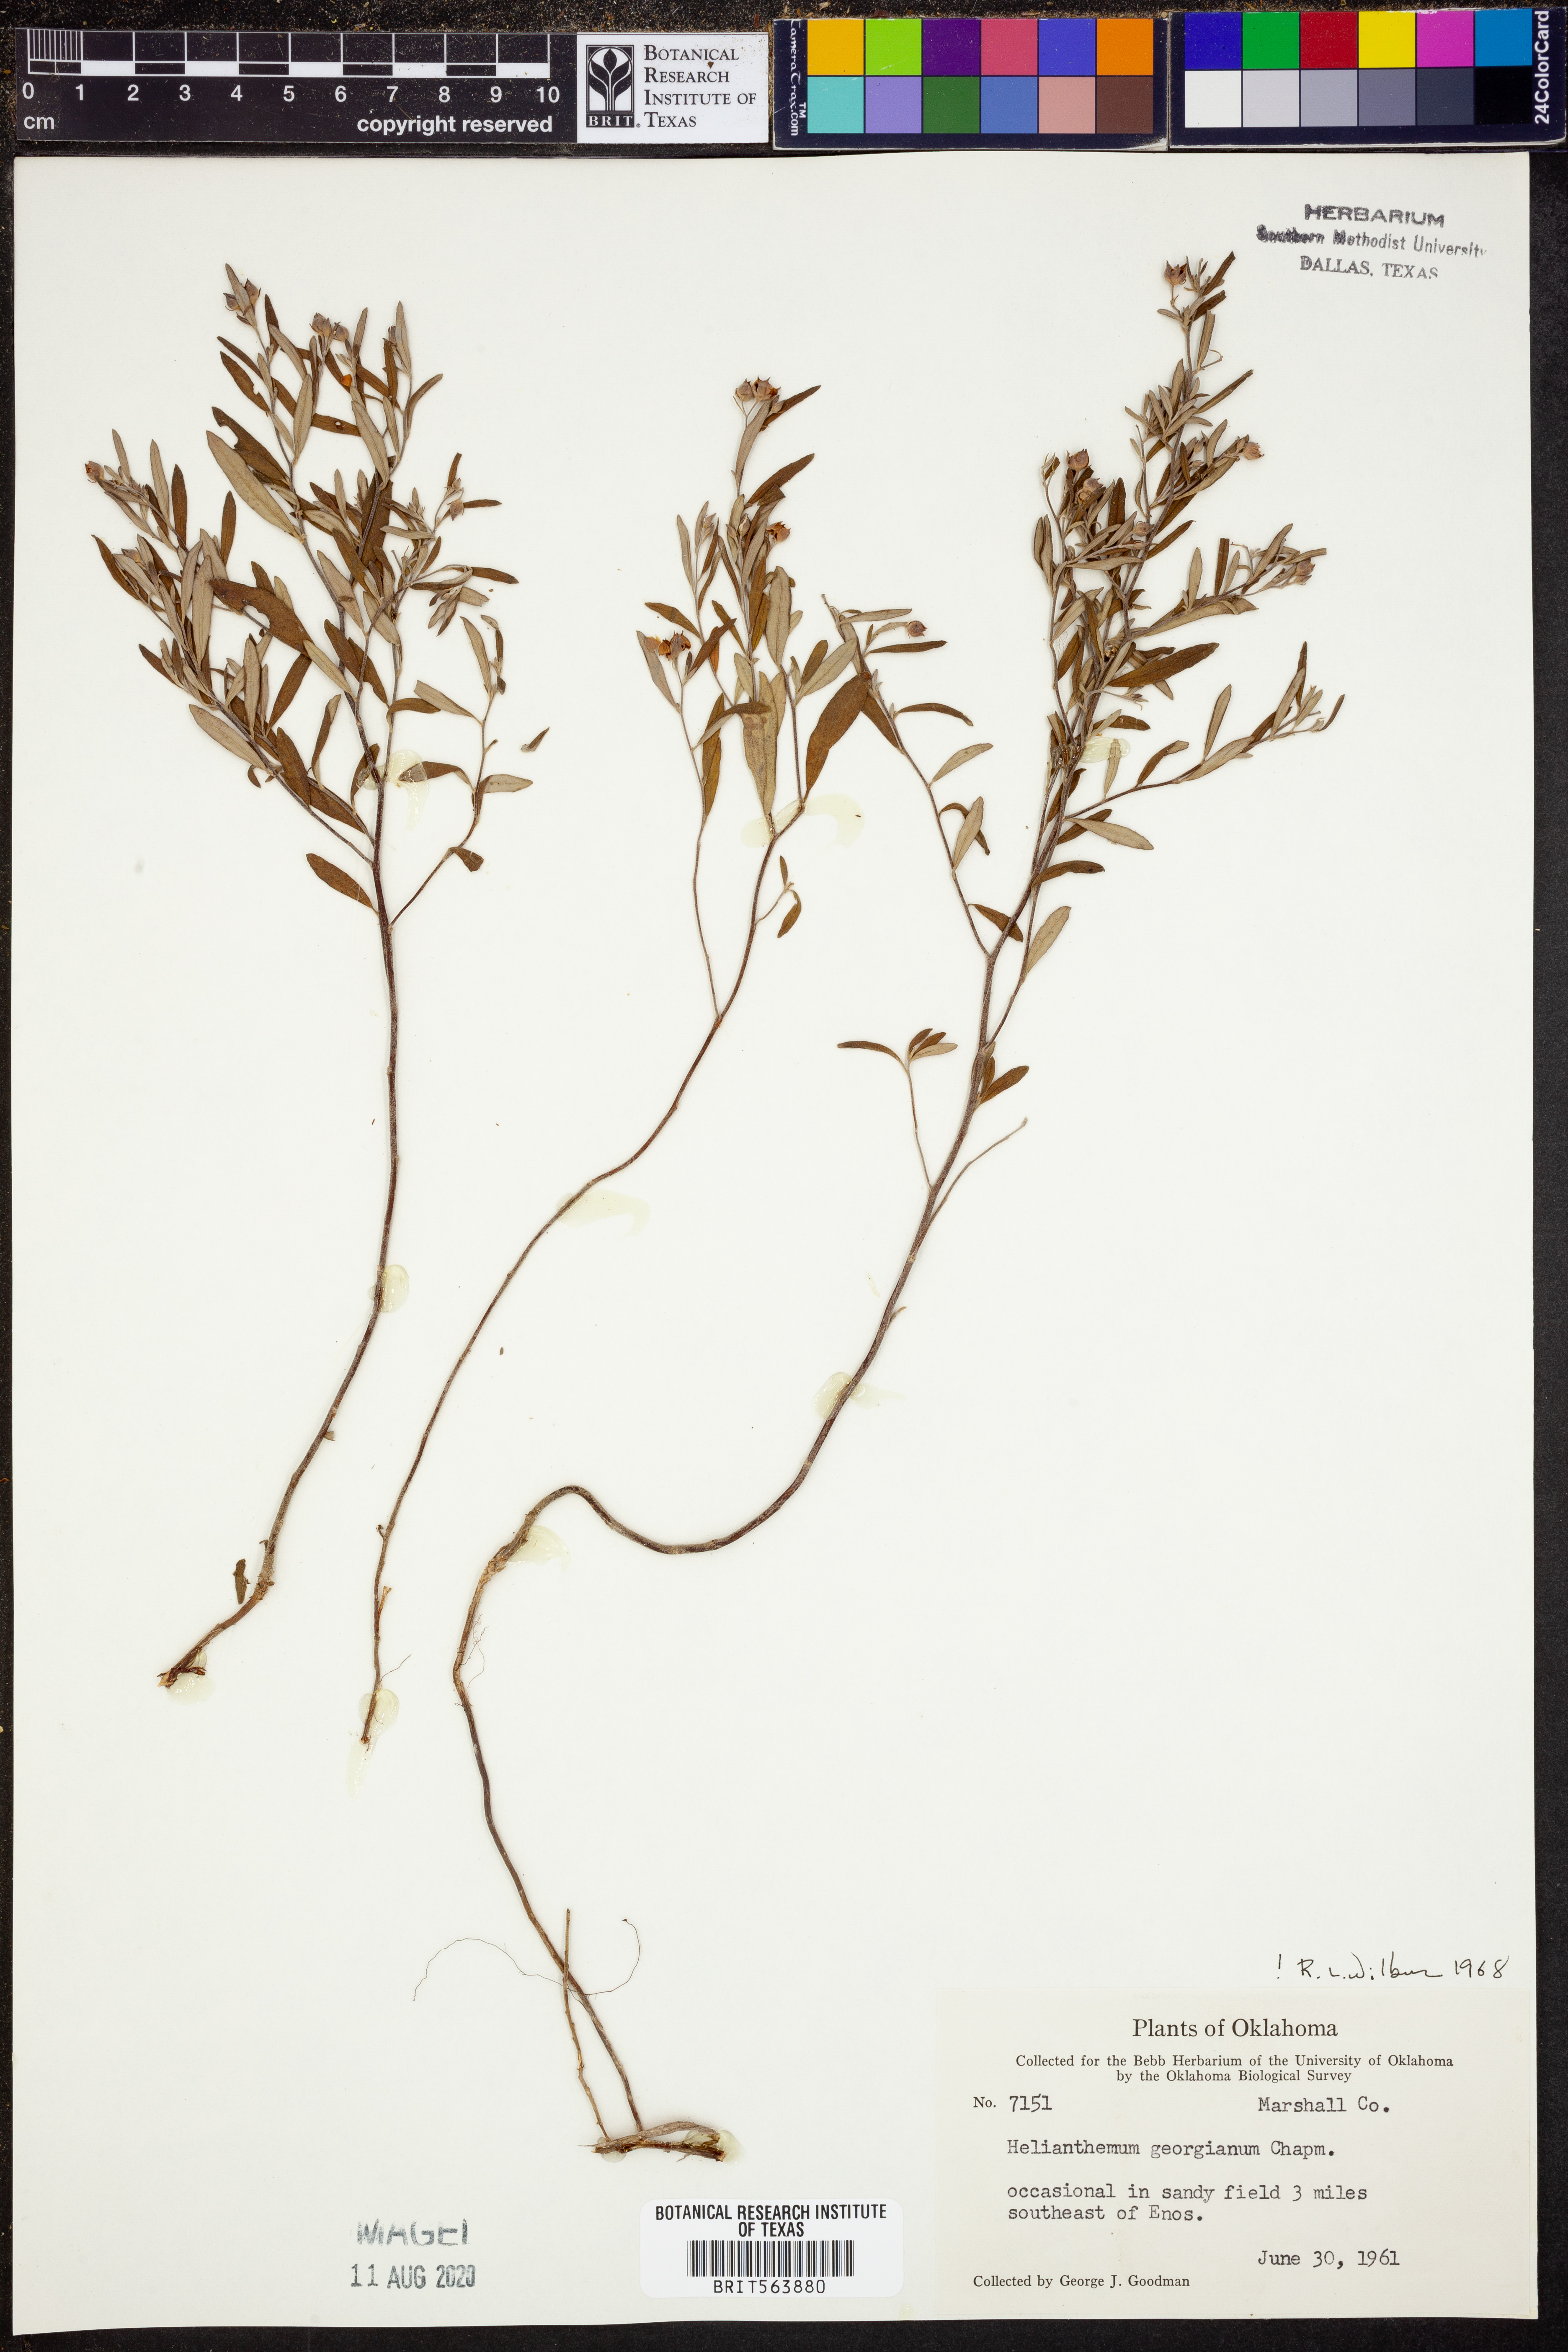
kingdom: Plantae
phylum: Tracheophyta
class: Magnoliopsida
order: Malvales
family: Cistaceae
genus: Crocanthemum
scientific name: Crocanthemum georgianum
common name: Georgia frostweed
